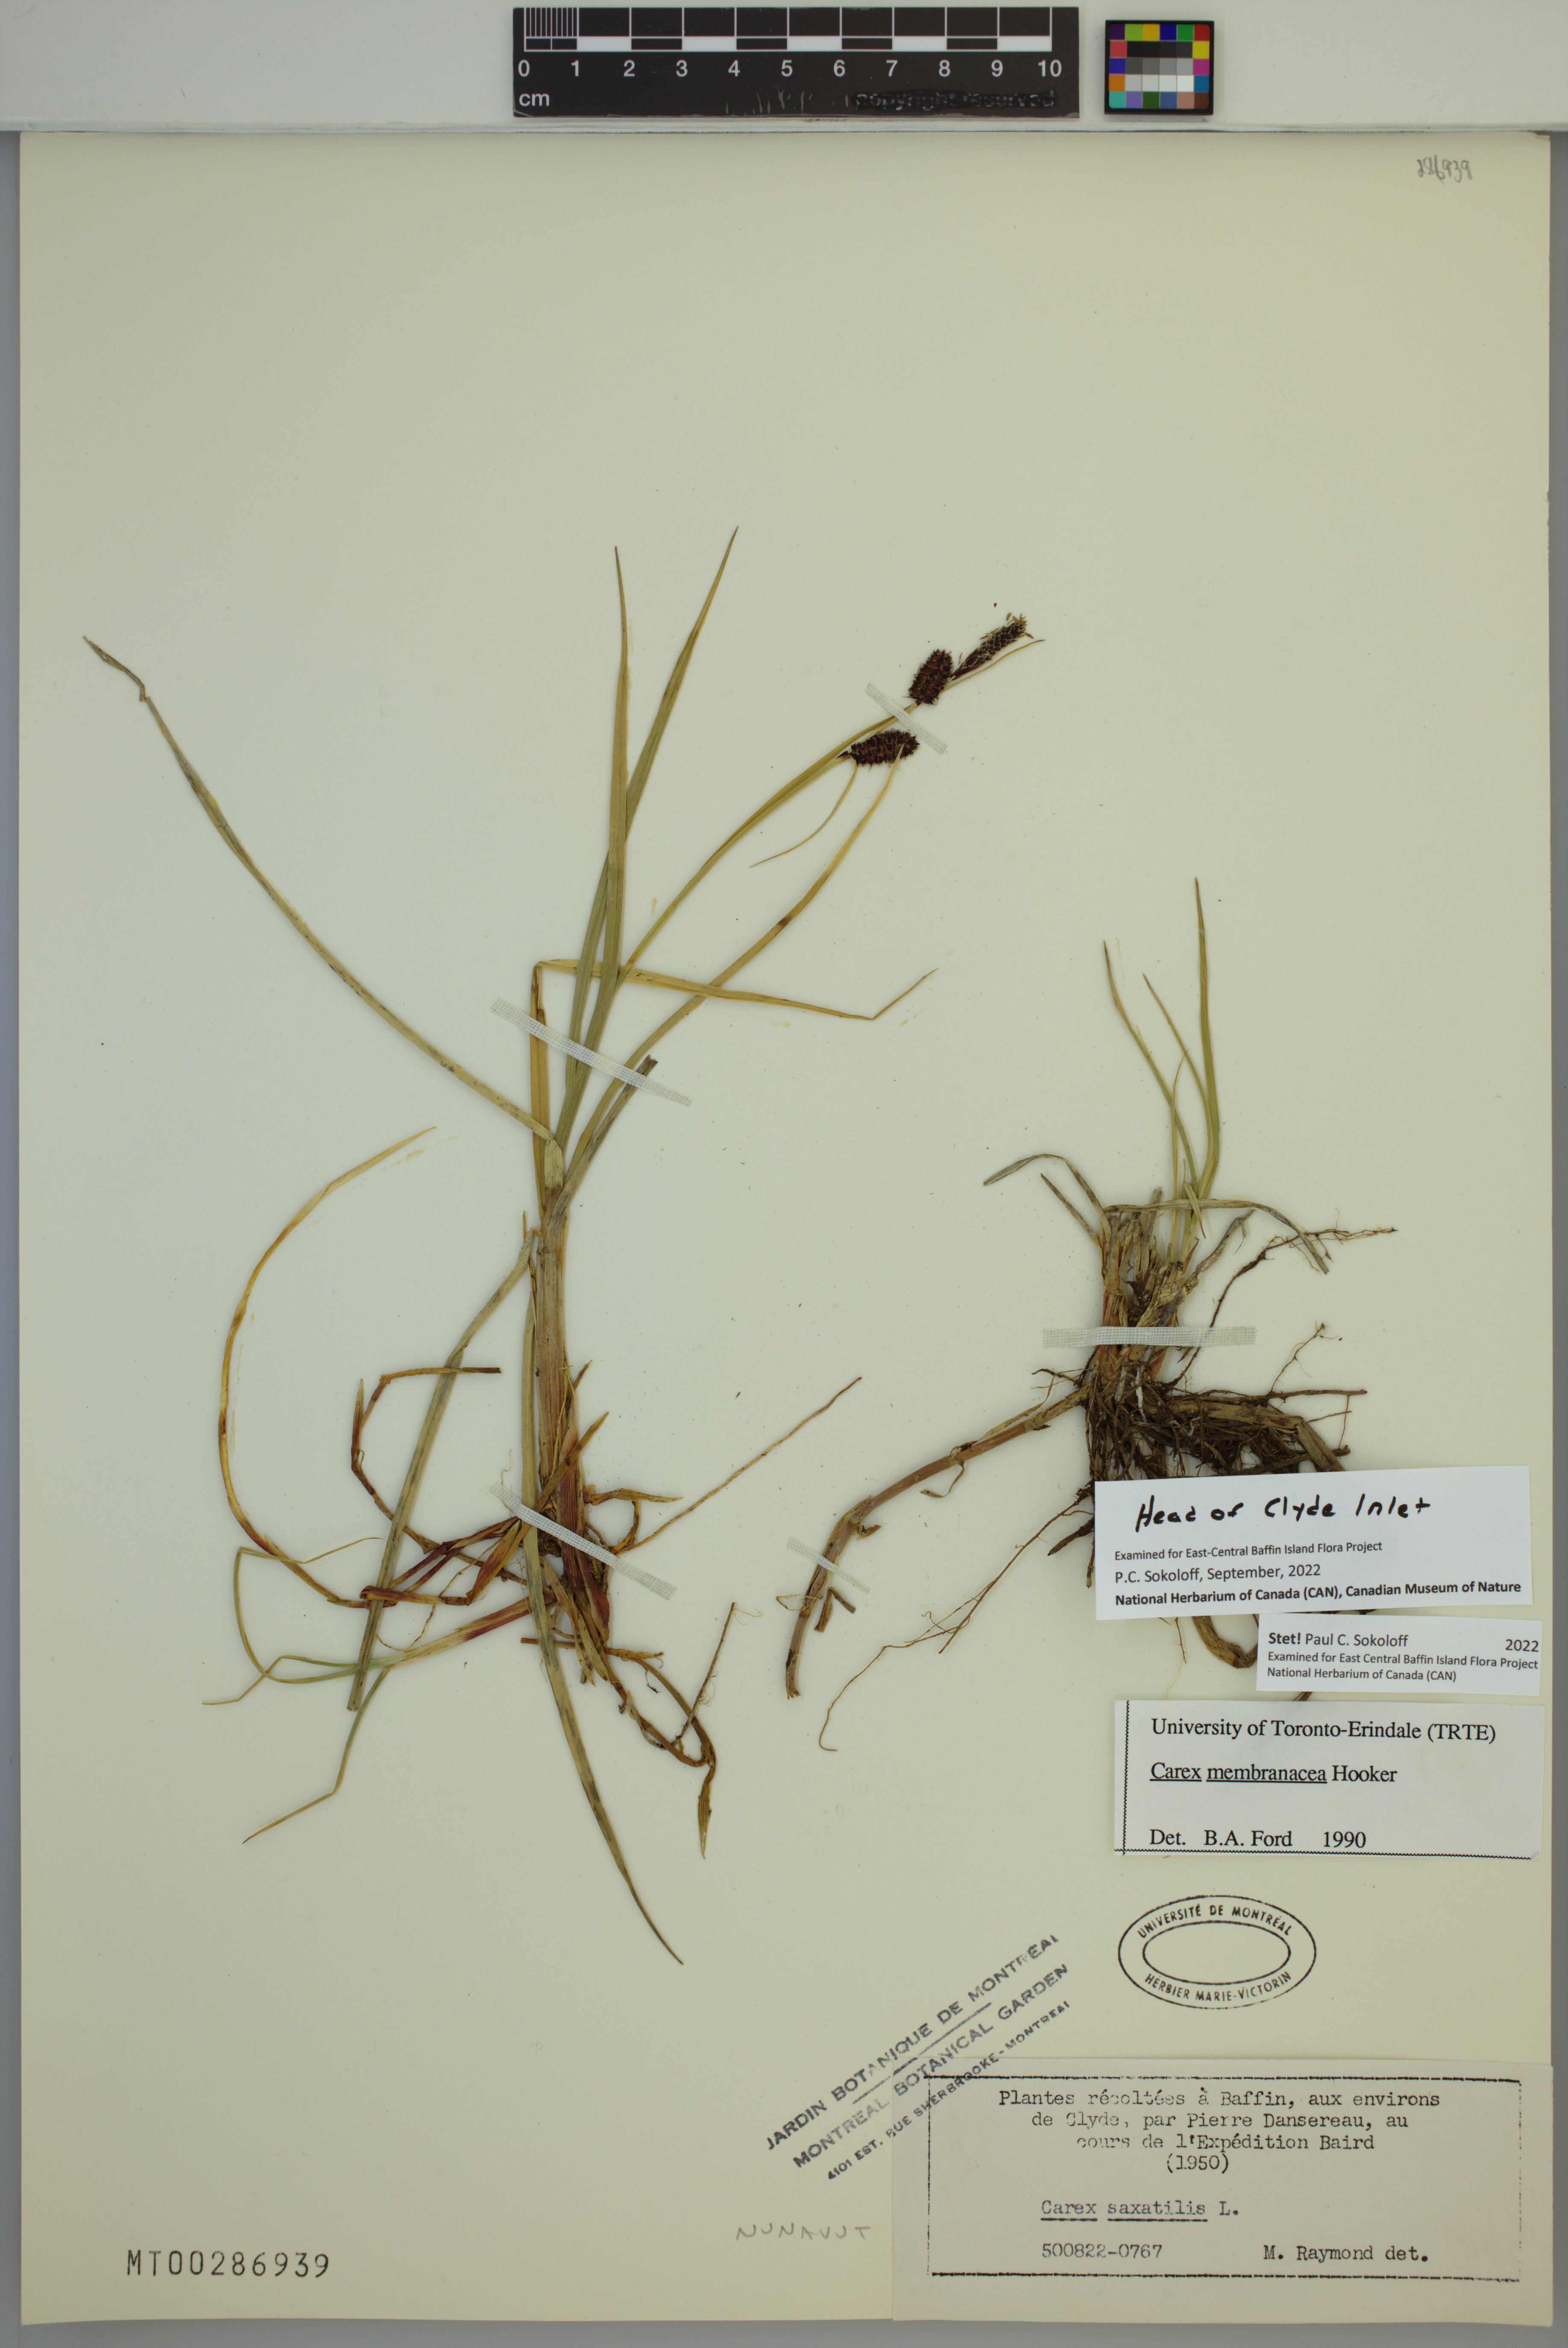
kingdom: Plantae
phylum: Tracheophyta
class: Liliopsida
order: Poales
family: Cyperaceae
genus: Carex
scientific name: Carex membranacea
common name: Fragile sedge
